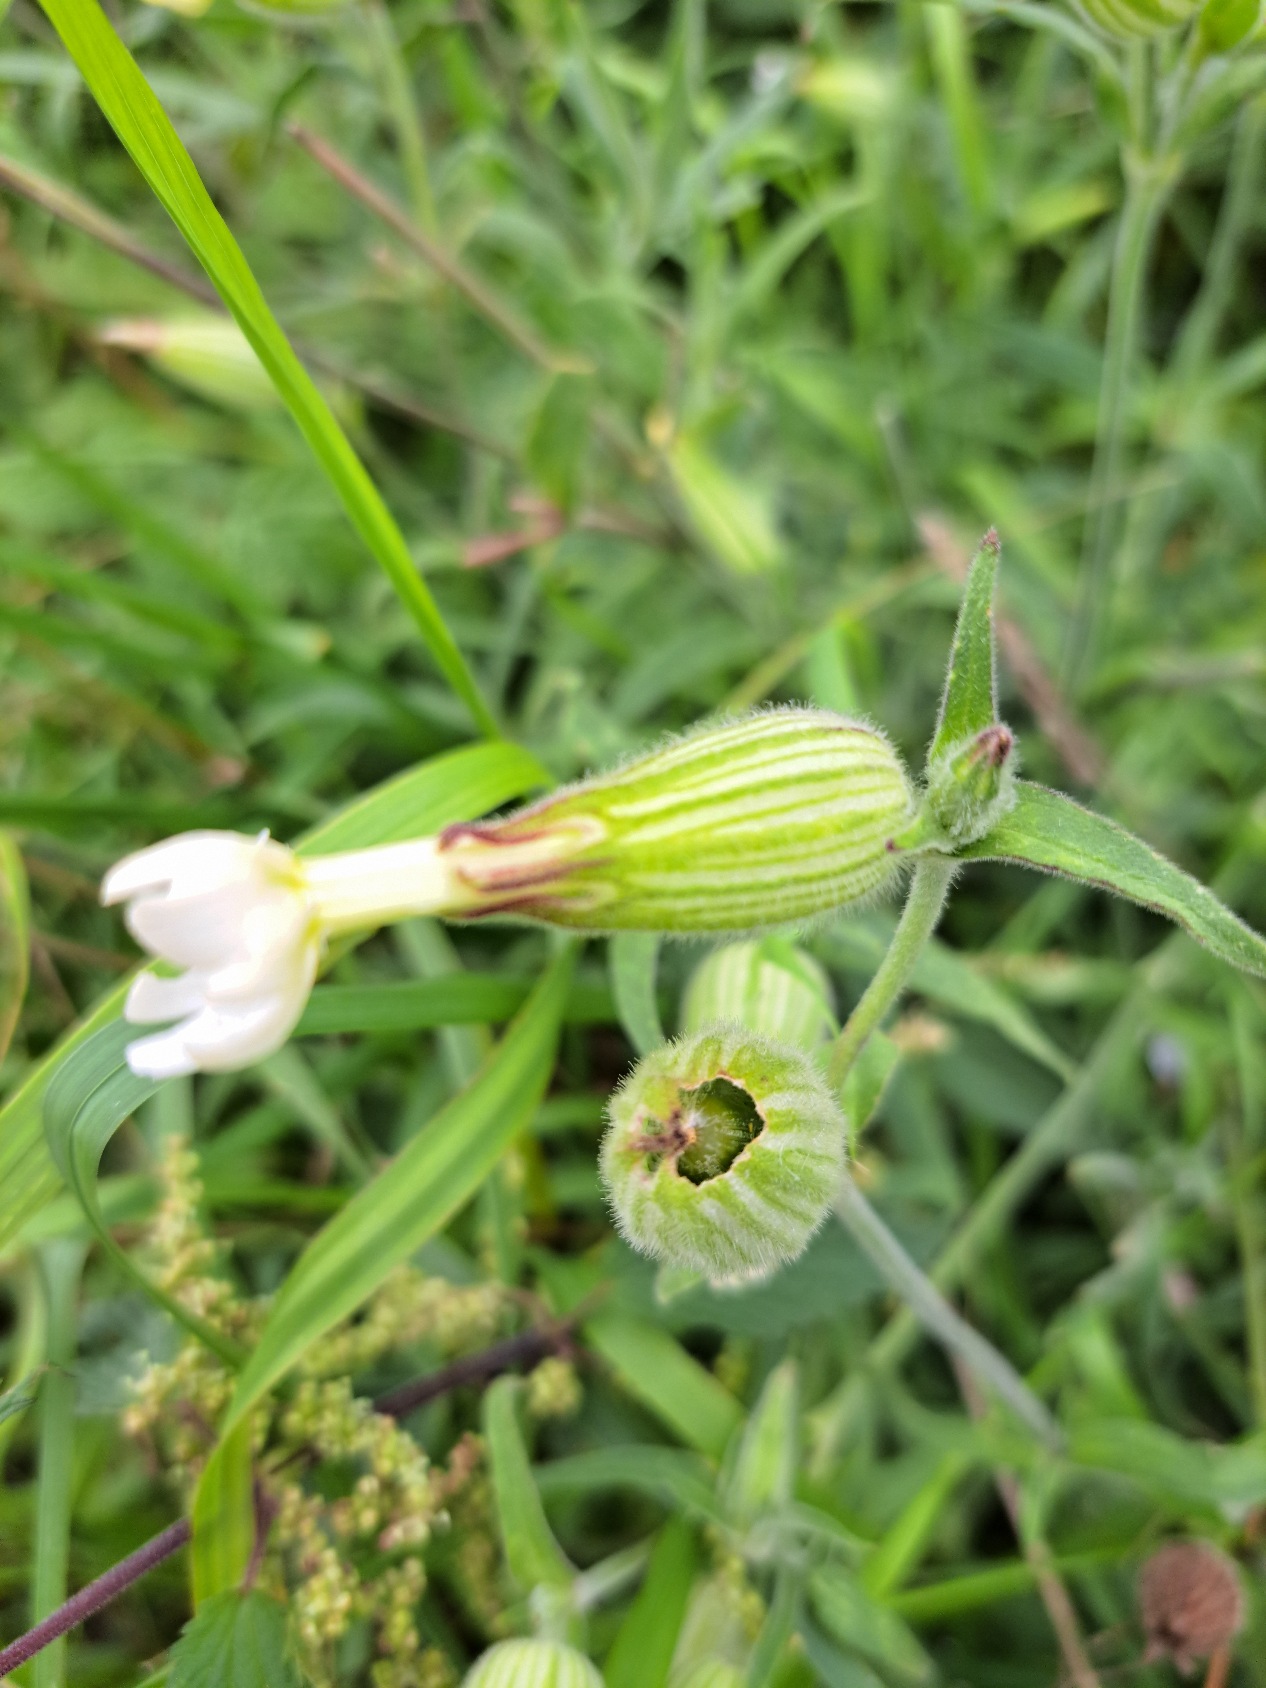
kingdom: Plantae
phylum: Tracheophyta
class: Magnoliopsida
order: Caryophyllales
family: Caryophyllaceae
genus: Silene
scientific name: Silene latifolia
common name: Aftenpragtstjerne
